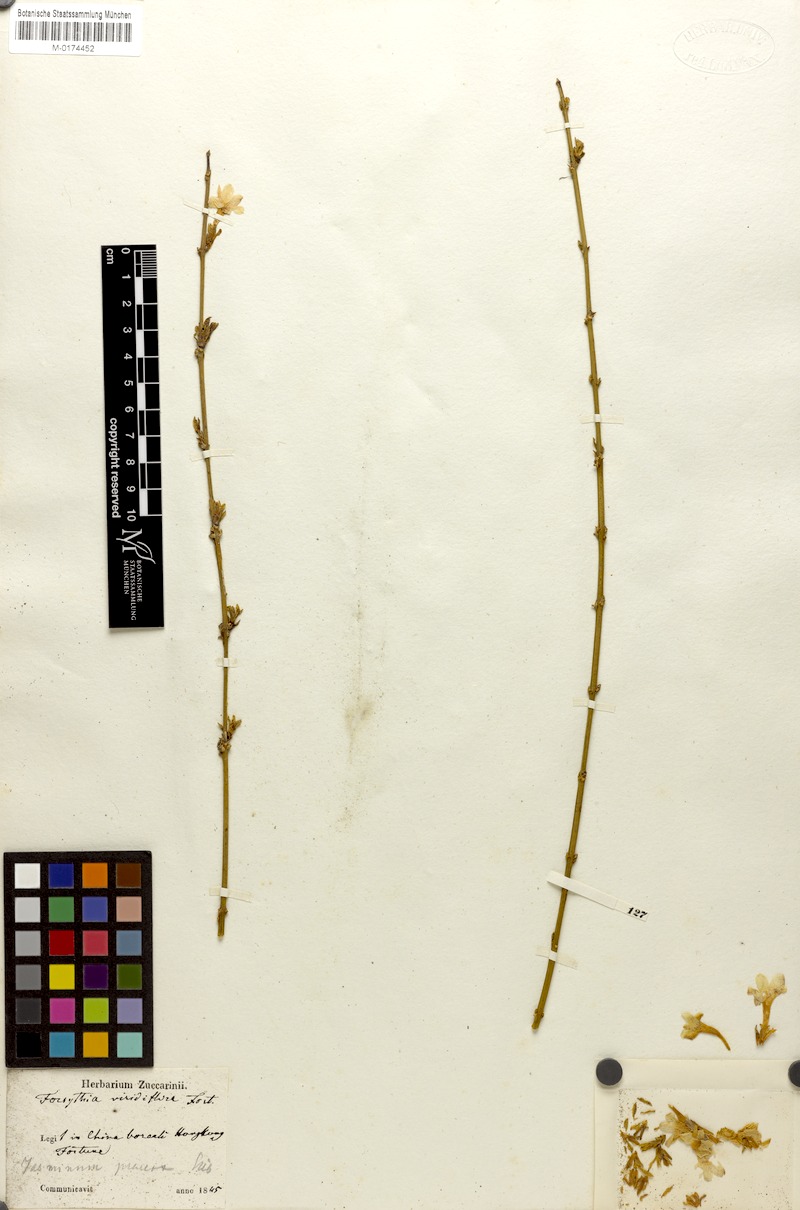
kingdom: Plantae
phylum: Tracheophyta
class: Magnoliopsida
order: Lamiales
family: Oleaceae
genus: Jasminum
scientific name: Jasminum nudiflorum
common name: Winter jasmine
